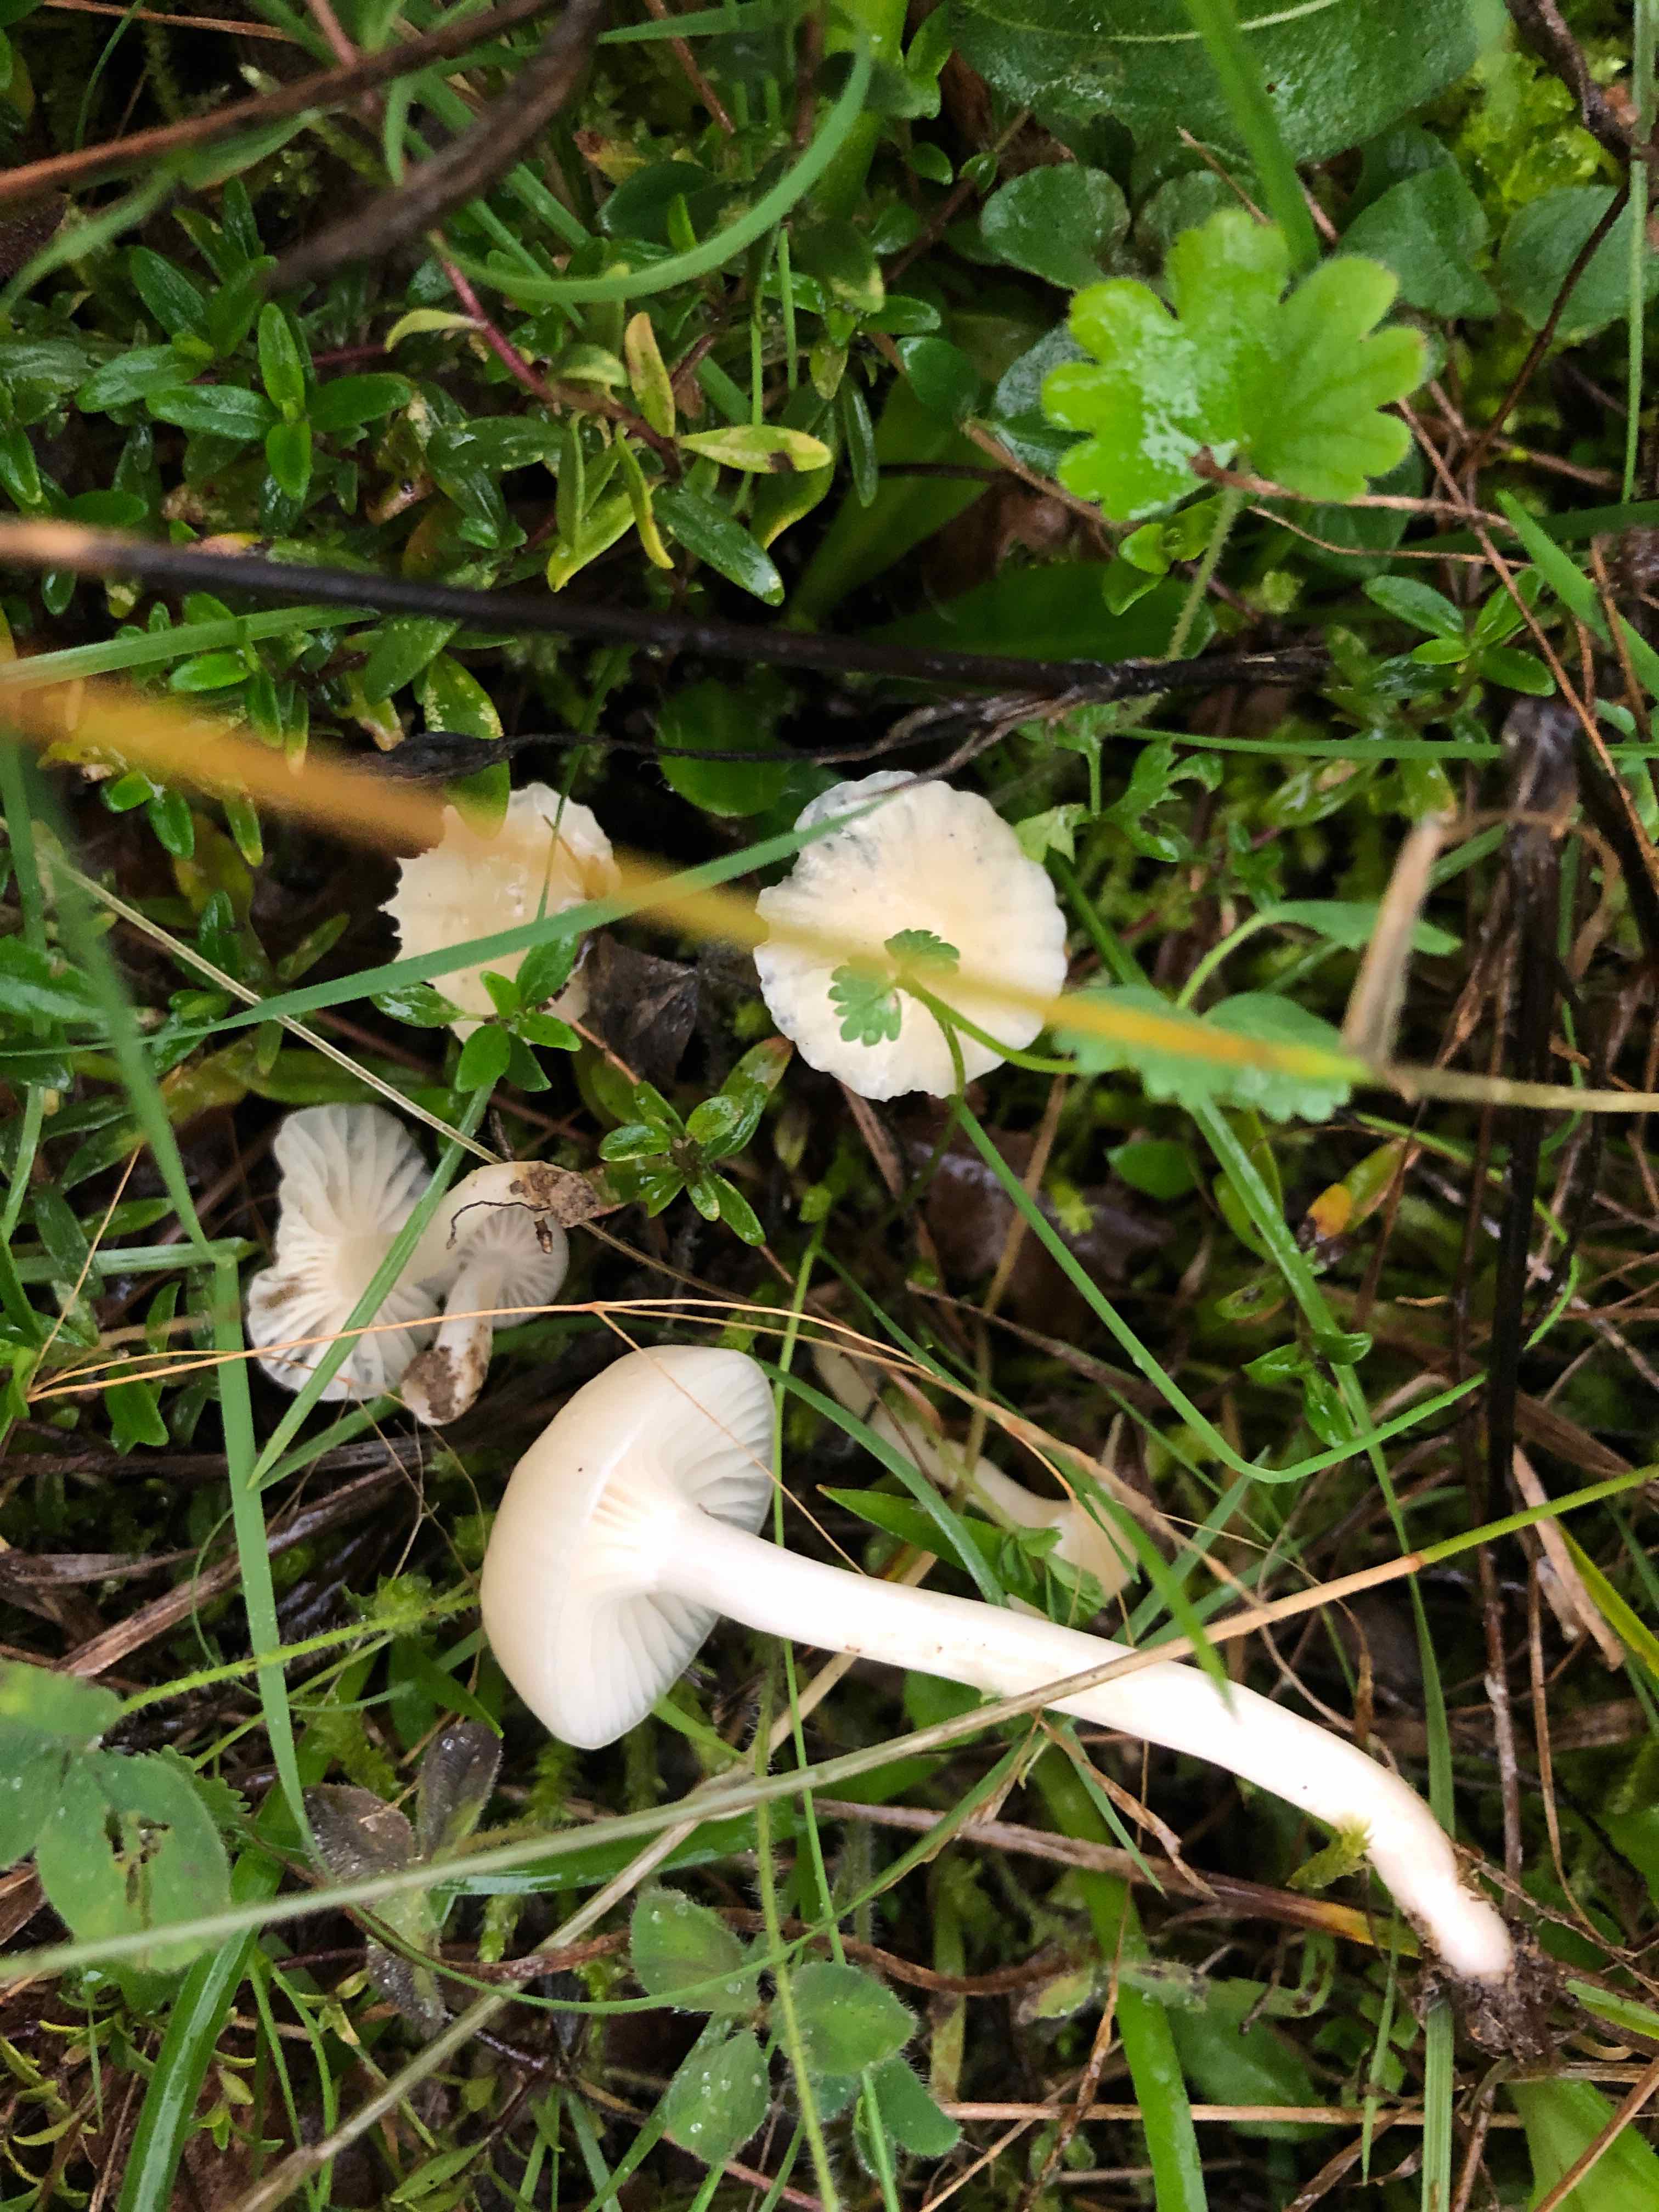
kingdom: Fungi
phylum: Basidiomycota
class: Agaricomycetes
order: Agaricales
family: Hygrophoraceae
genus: Cuphophyllus
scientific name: Cuphophyllus virgineus
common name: snehvid vokshat
